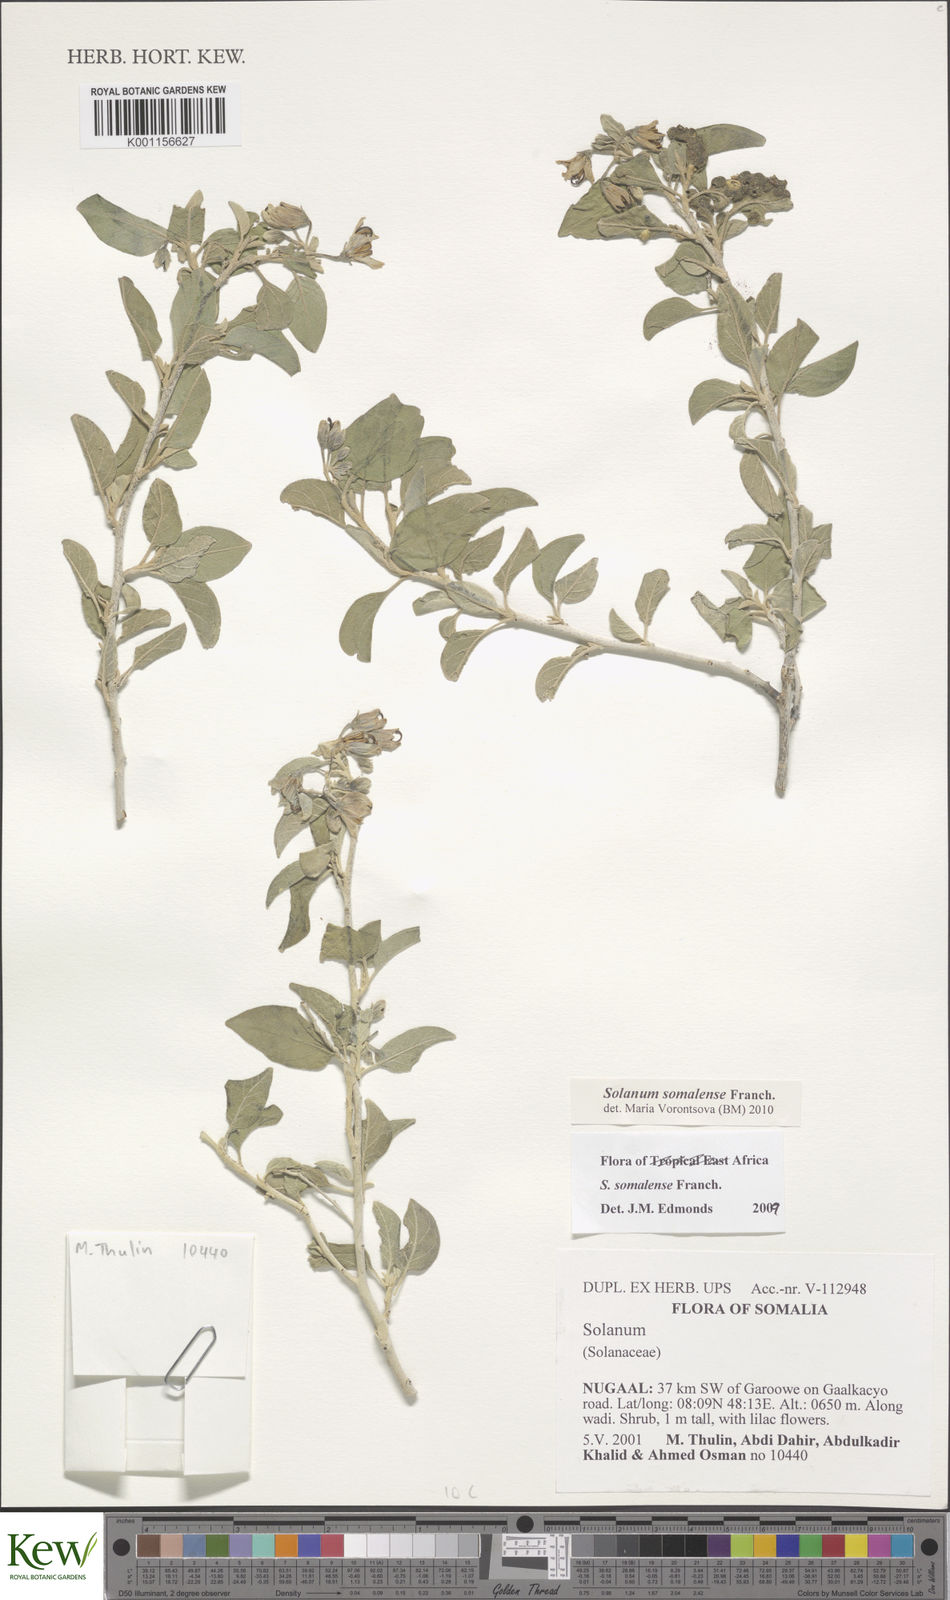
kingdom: Plantae
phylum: Tracheophyta
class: Magnoliopsida
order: Solanales
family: Solanaceae
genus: Solanum
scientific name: Solanum somalense
